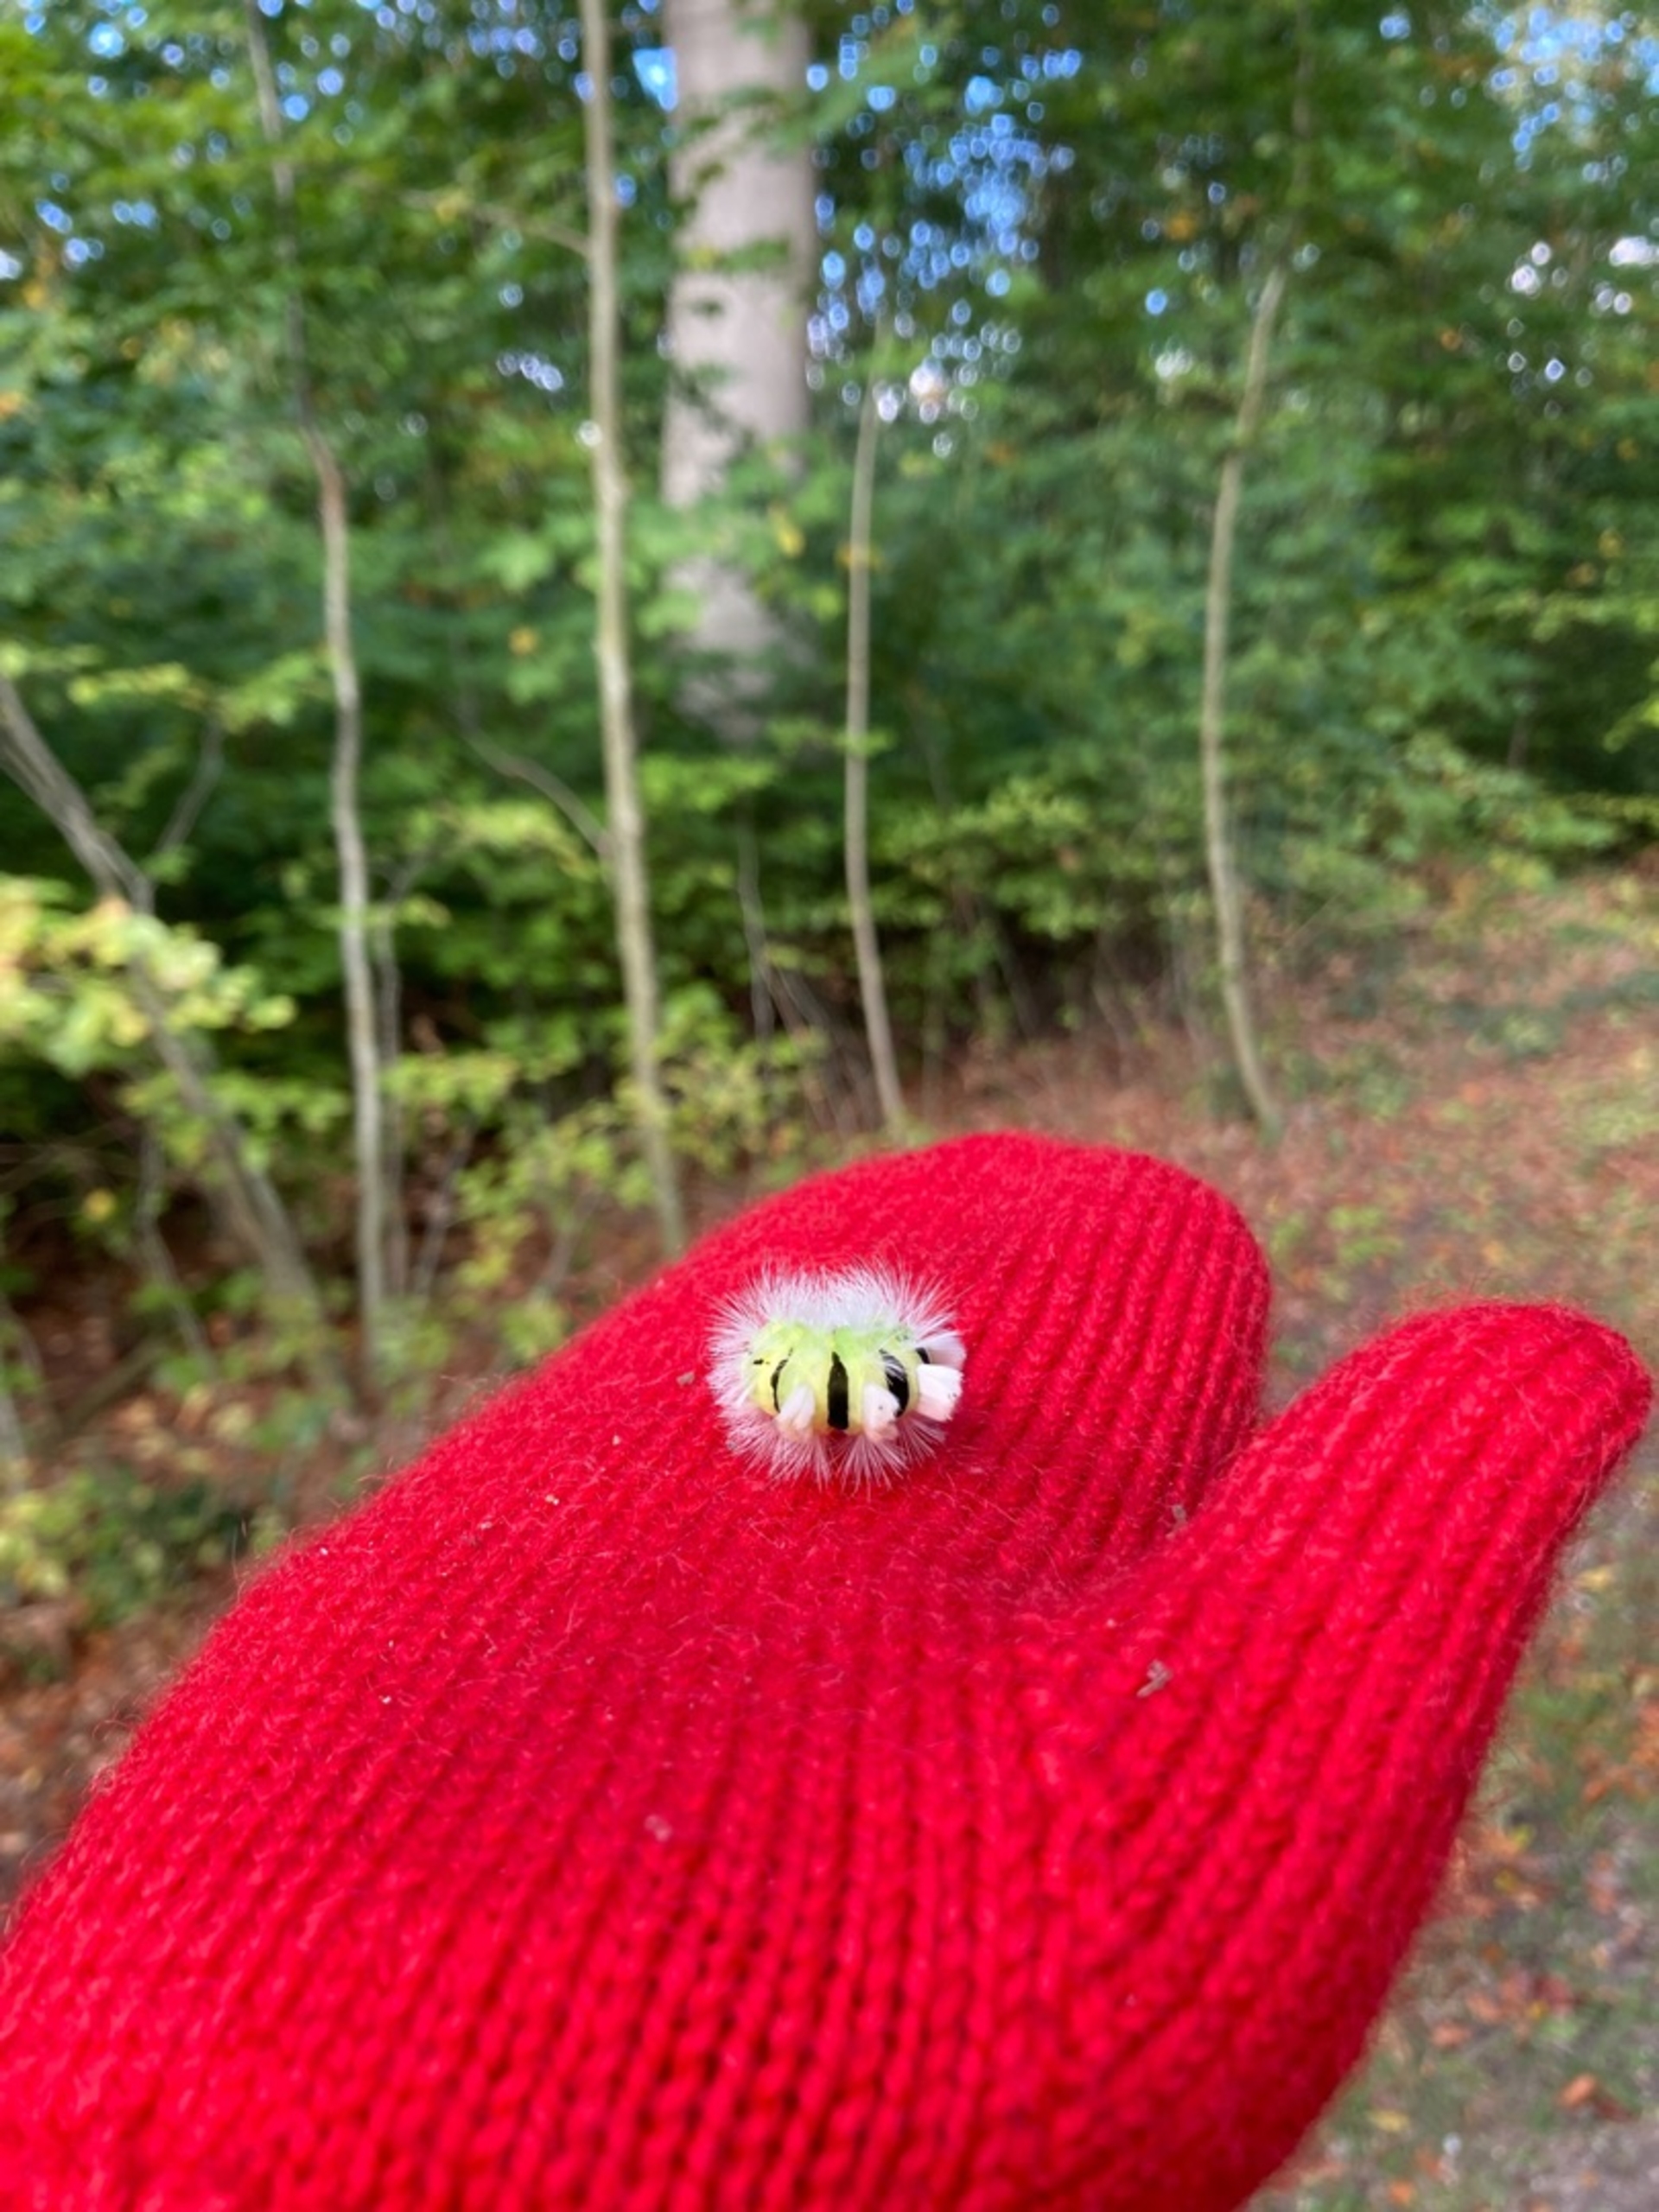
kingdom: Animalia
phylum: Arthropoda
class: Insecta
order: Lepidoptera
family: Erebidae
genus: Calliteara
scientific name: Calliteara pudibunda
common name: Bøgenonne
